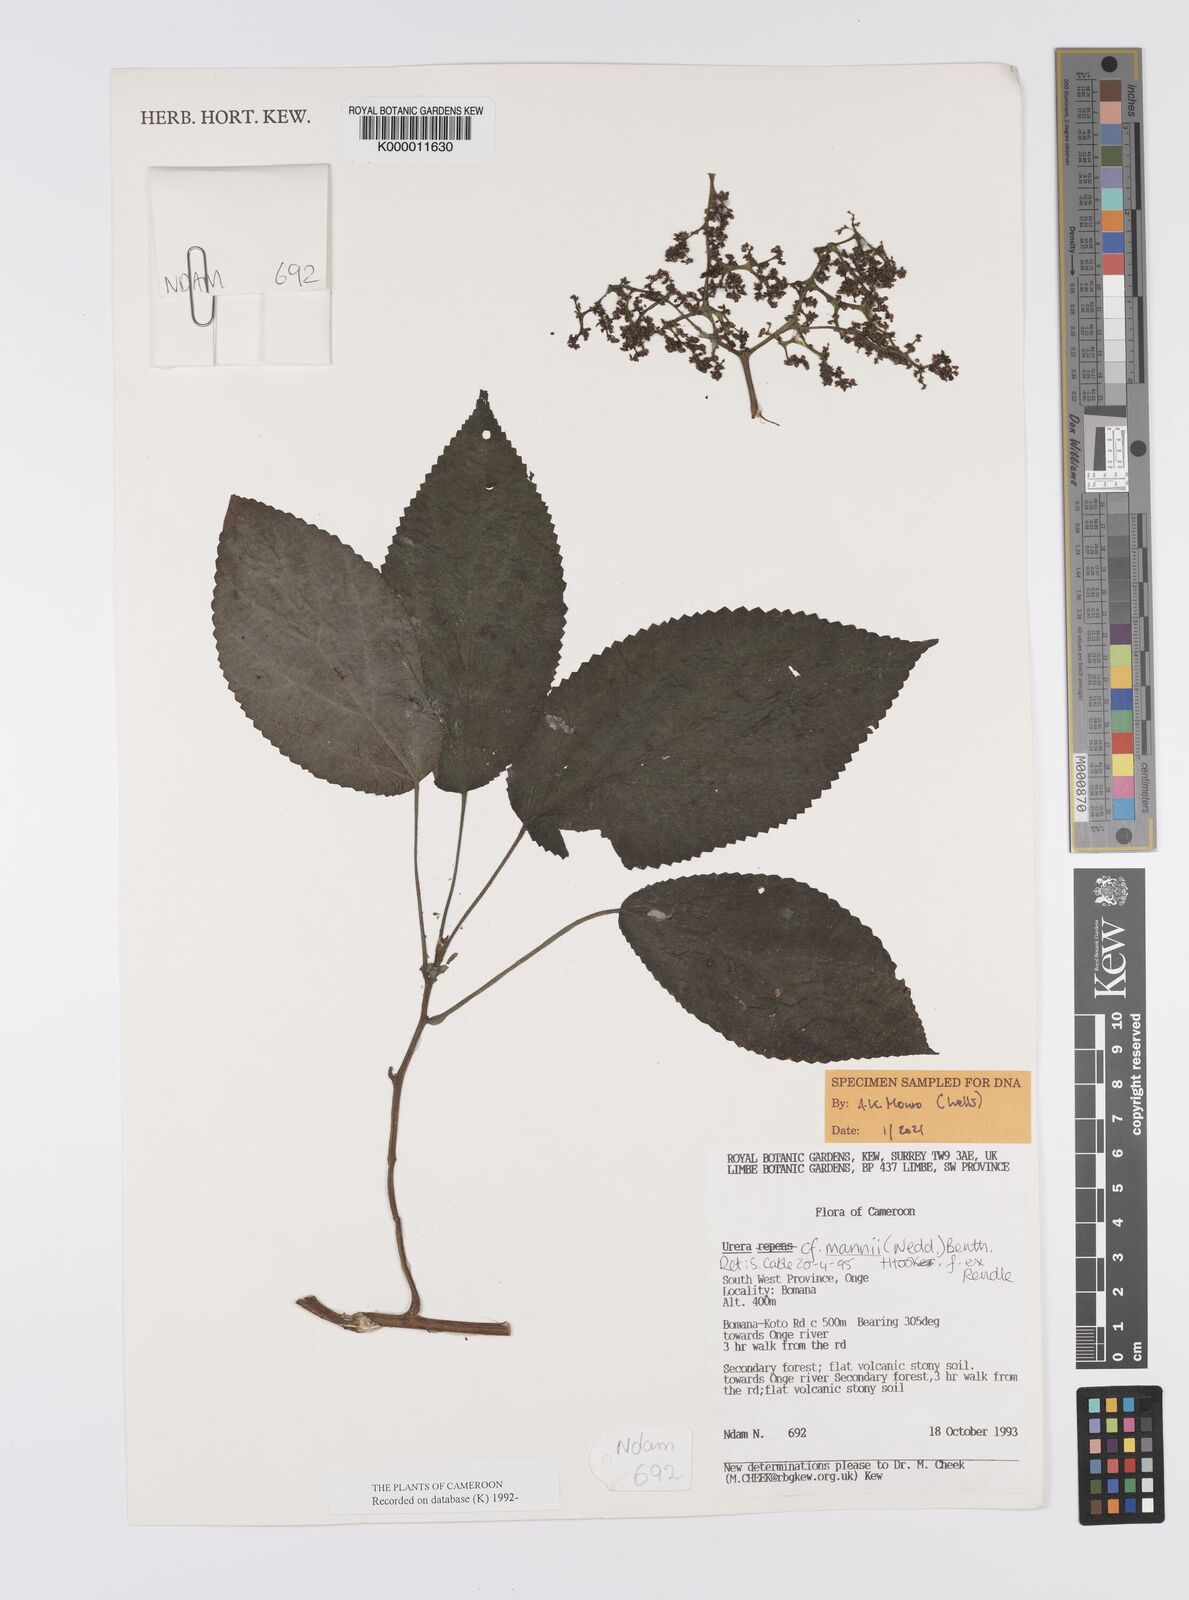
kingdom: Plantae
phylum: Tracheophyta
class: Magnoliopsida
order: Rosales
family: Urticaceae
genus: Scepocarpus
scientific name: Scepocarpus mannii
